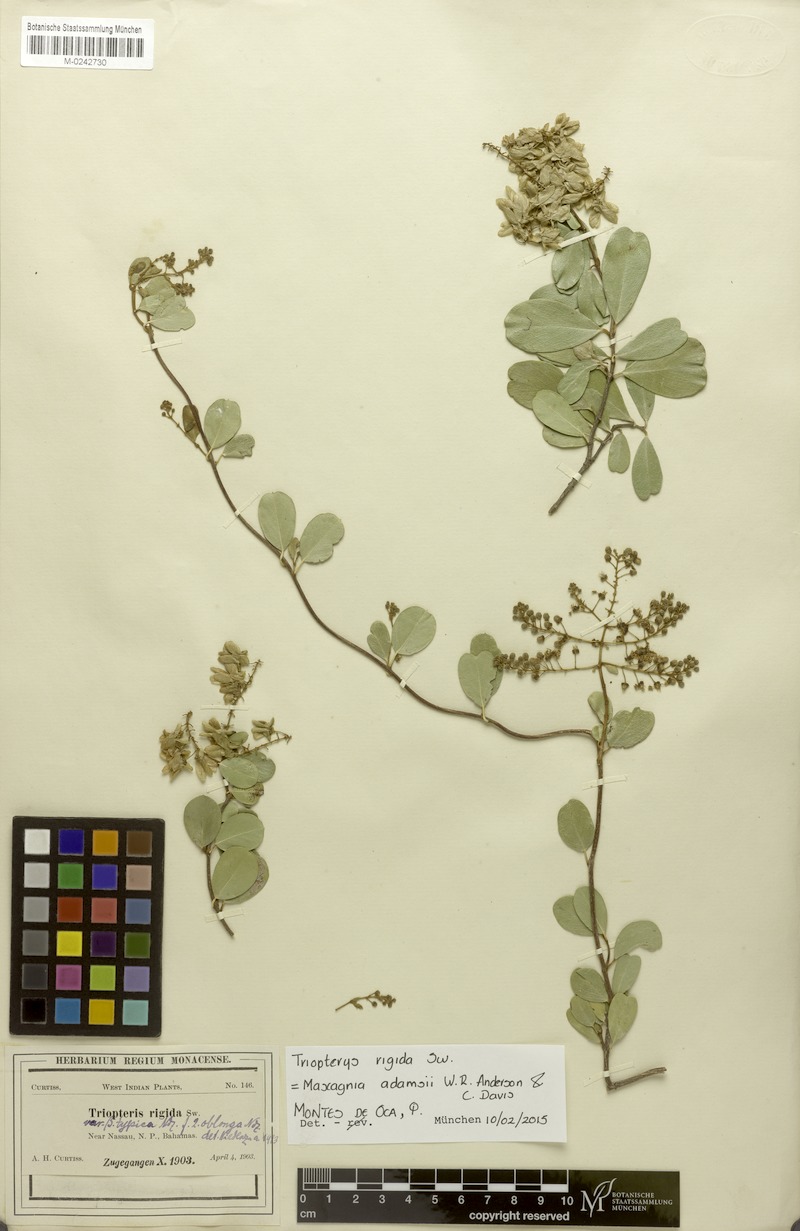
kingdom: Plantae
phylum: Tracheophyta
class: Magnoliopsida
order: Malpighiales
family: Malpighiaceae
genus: Mascagnia
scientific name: Mascagnia adamsii
